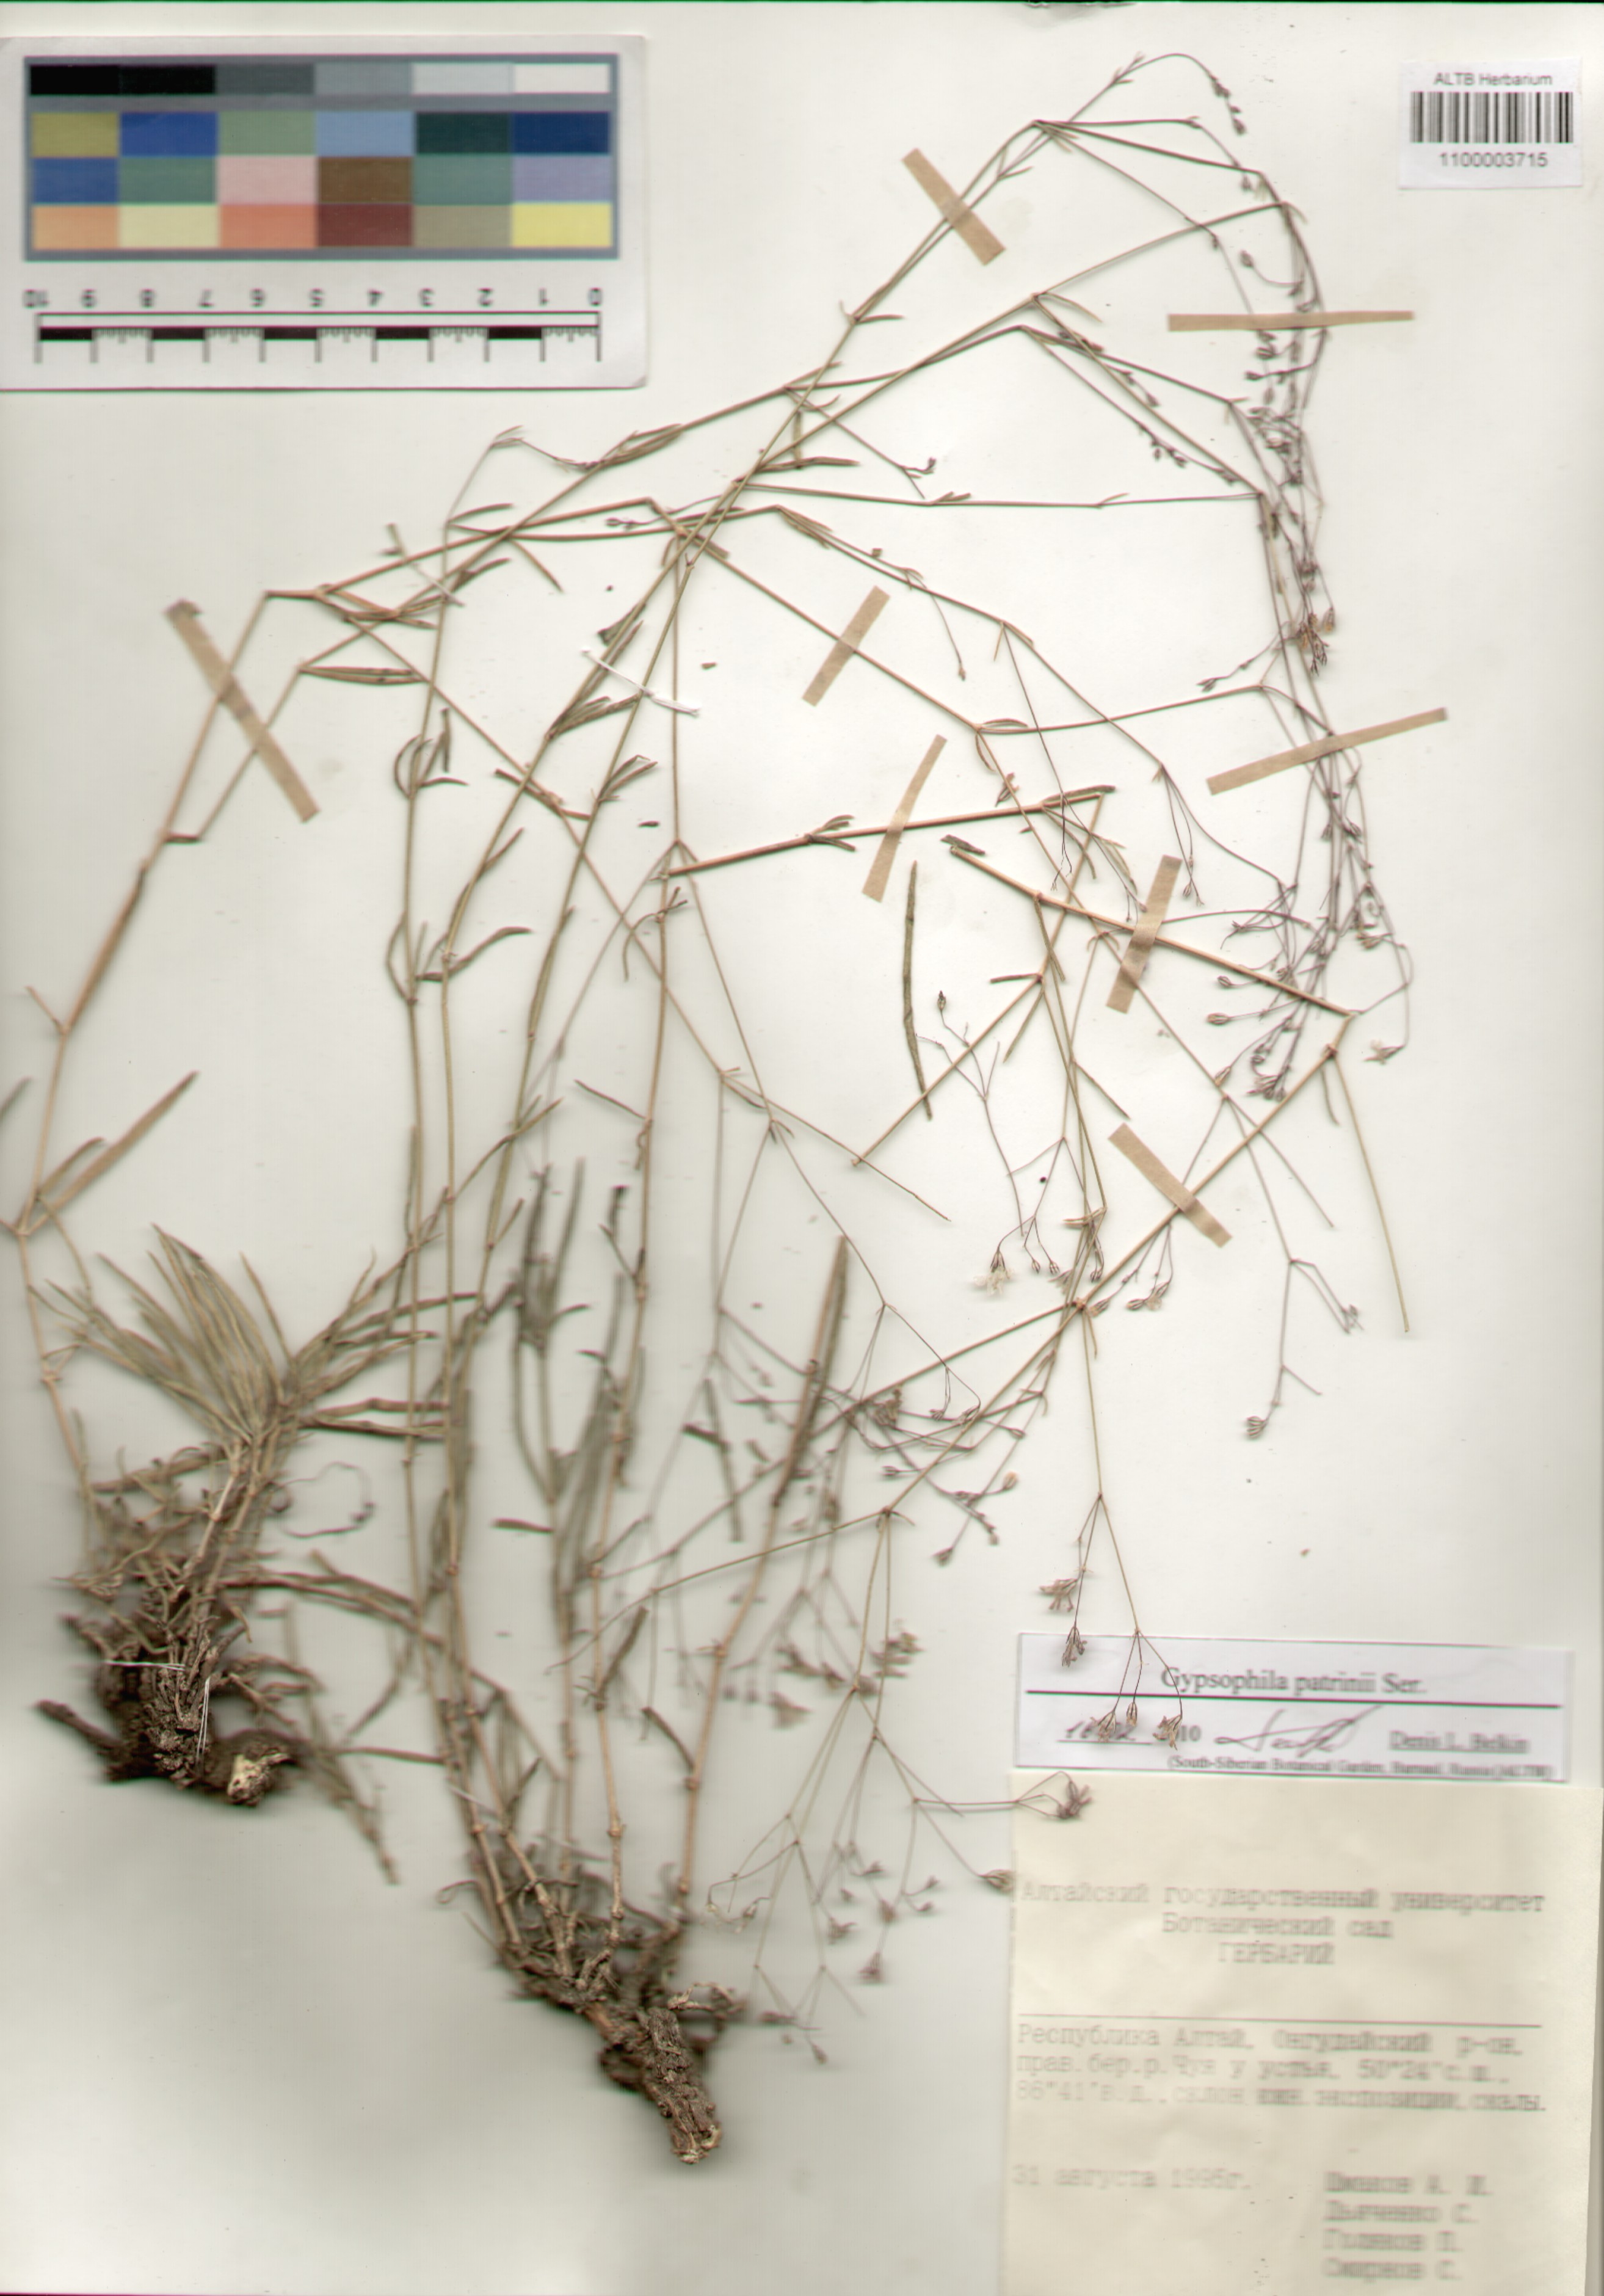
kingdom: Plantae
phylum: Tracheophyta
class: Magnoliopsida
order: Caryophyllales
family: Caryophyllaceae
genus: Gypsophila
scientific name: Gypsophila patrinii
